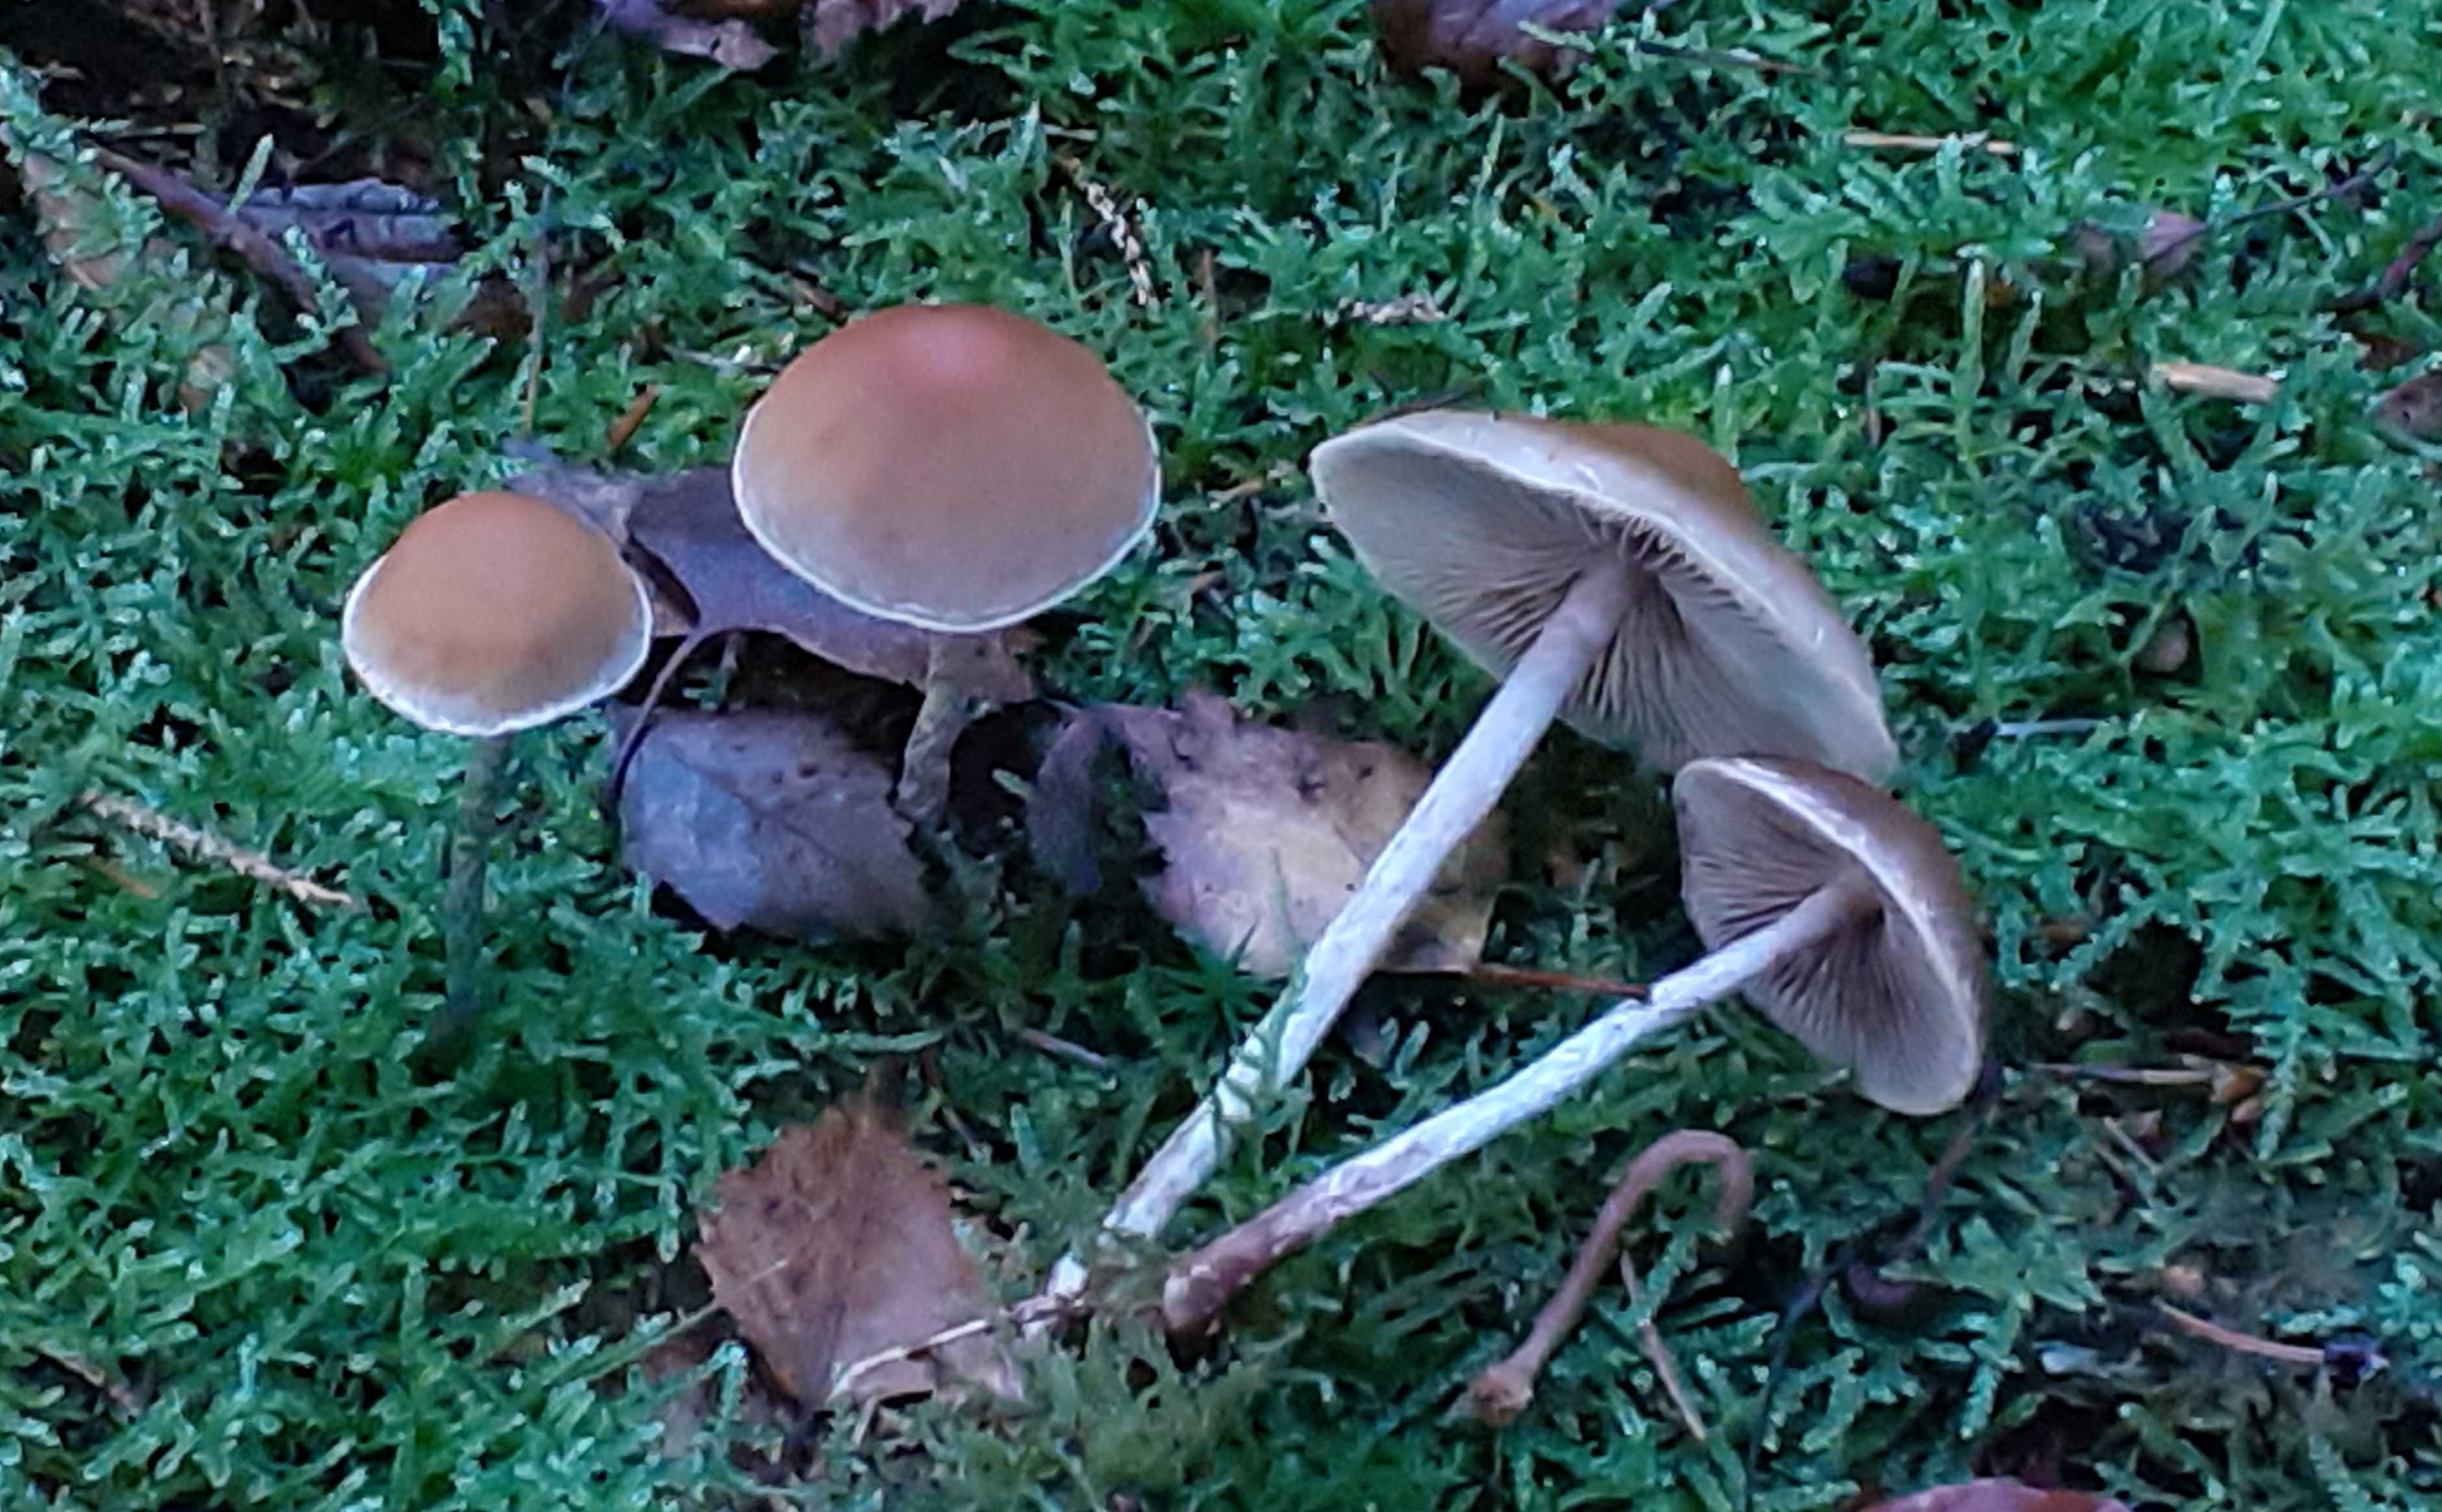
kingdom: Fungi
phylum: Basidiomycota
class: Agaricomycetes
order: Agaricales
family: Strophariaceae
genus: Hypholoma
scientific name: Hypholoma marginatum
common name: enlig svovlhat
